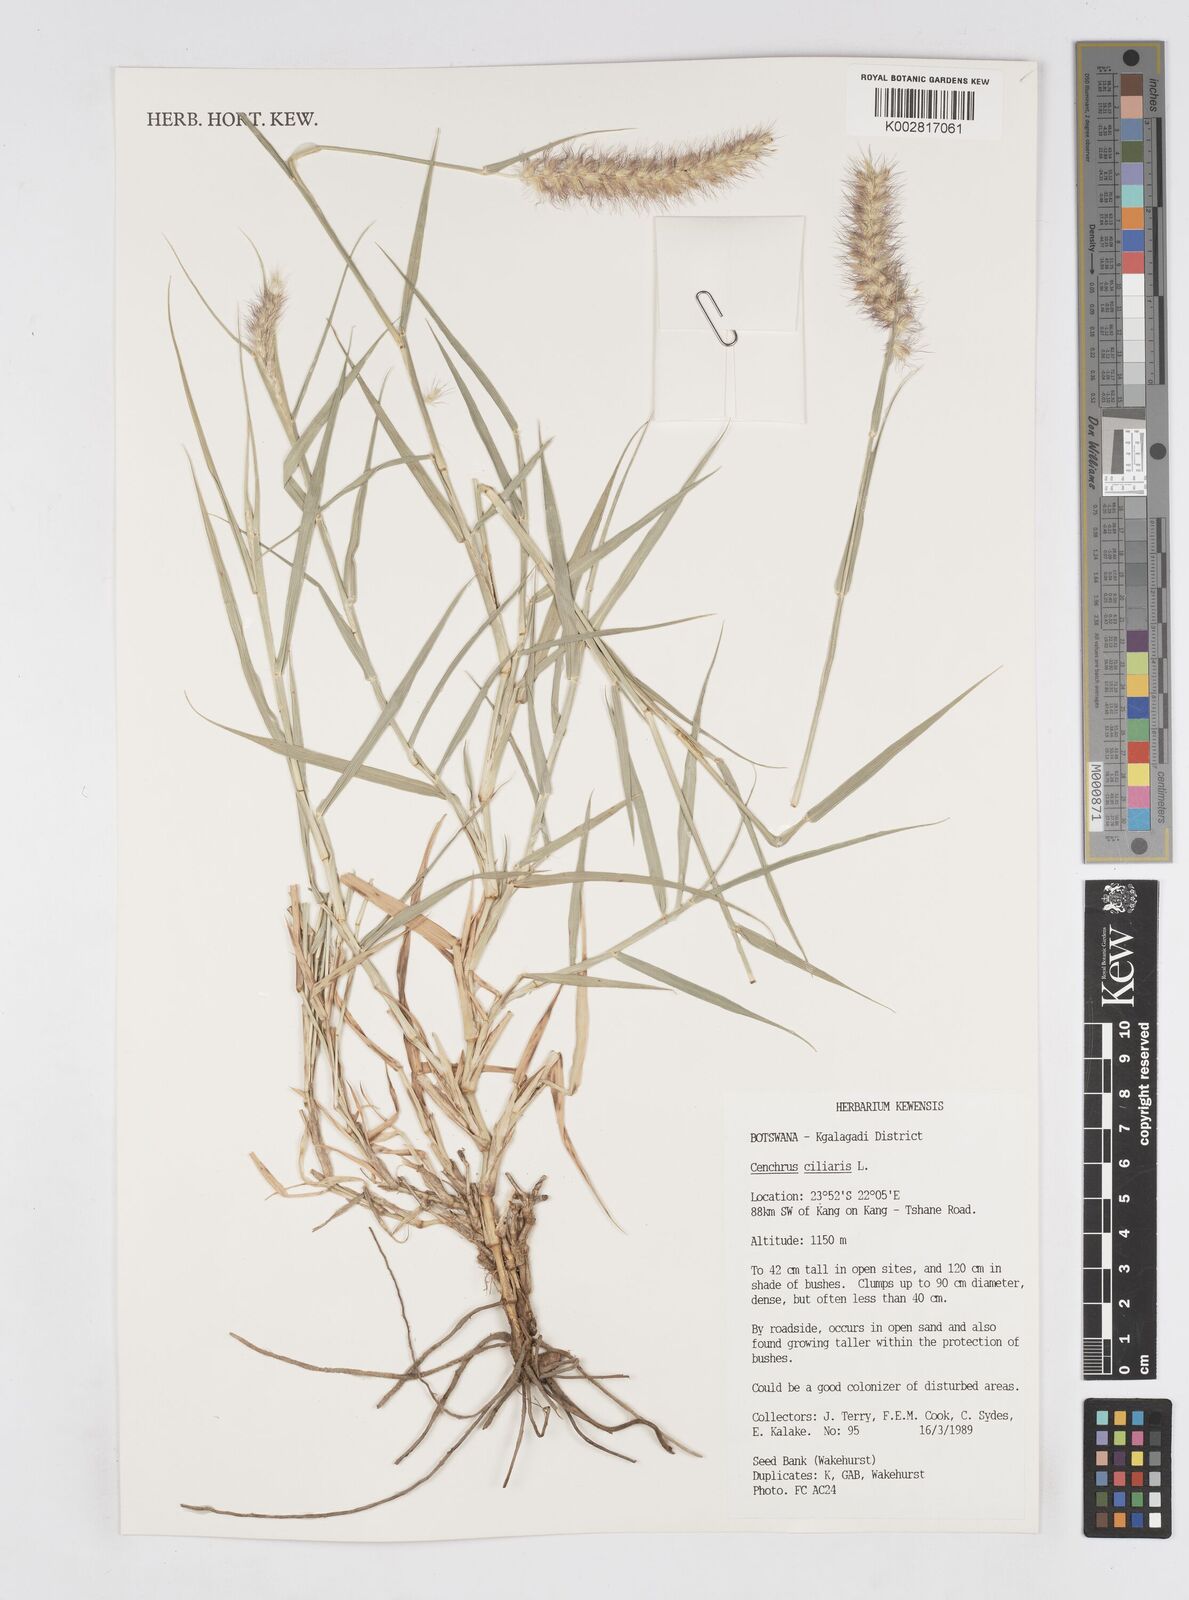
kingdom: Plantae
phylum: Tracheophyta
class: Liliopsida
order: Poales
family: Poaceae
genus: Cenchrus
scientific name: Cenchrus ciliaris
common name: Buffelgrass
